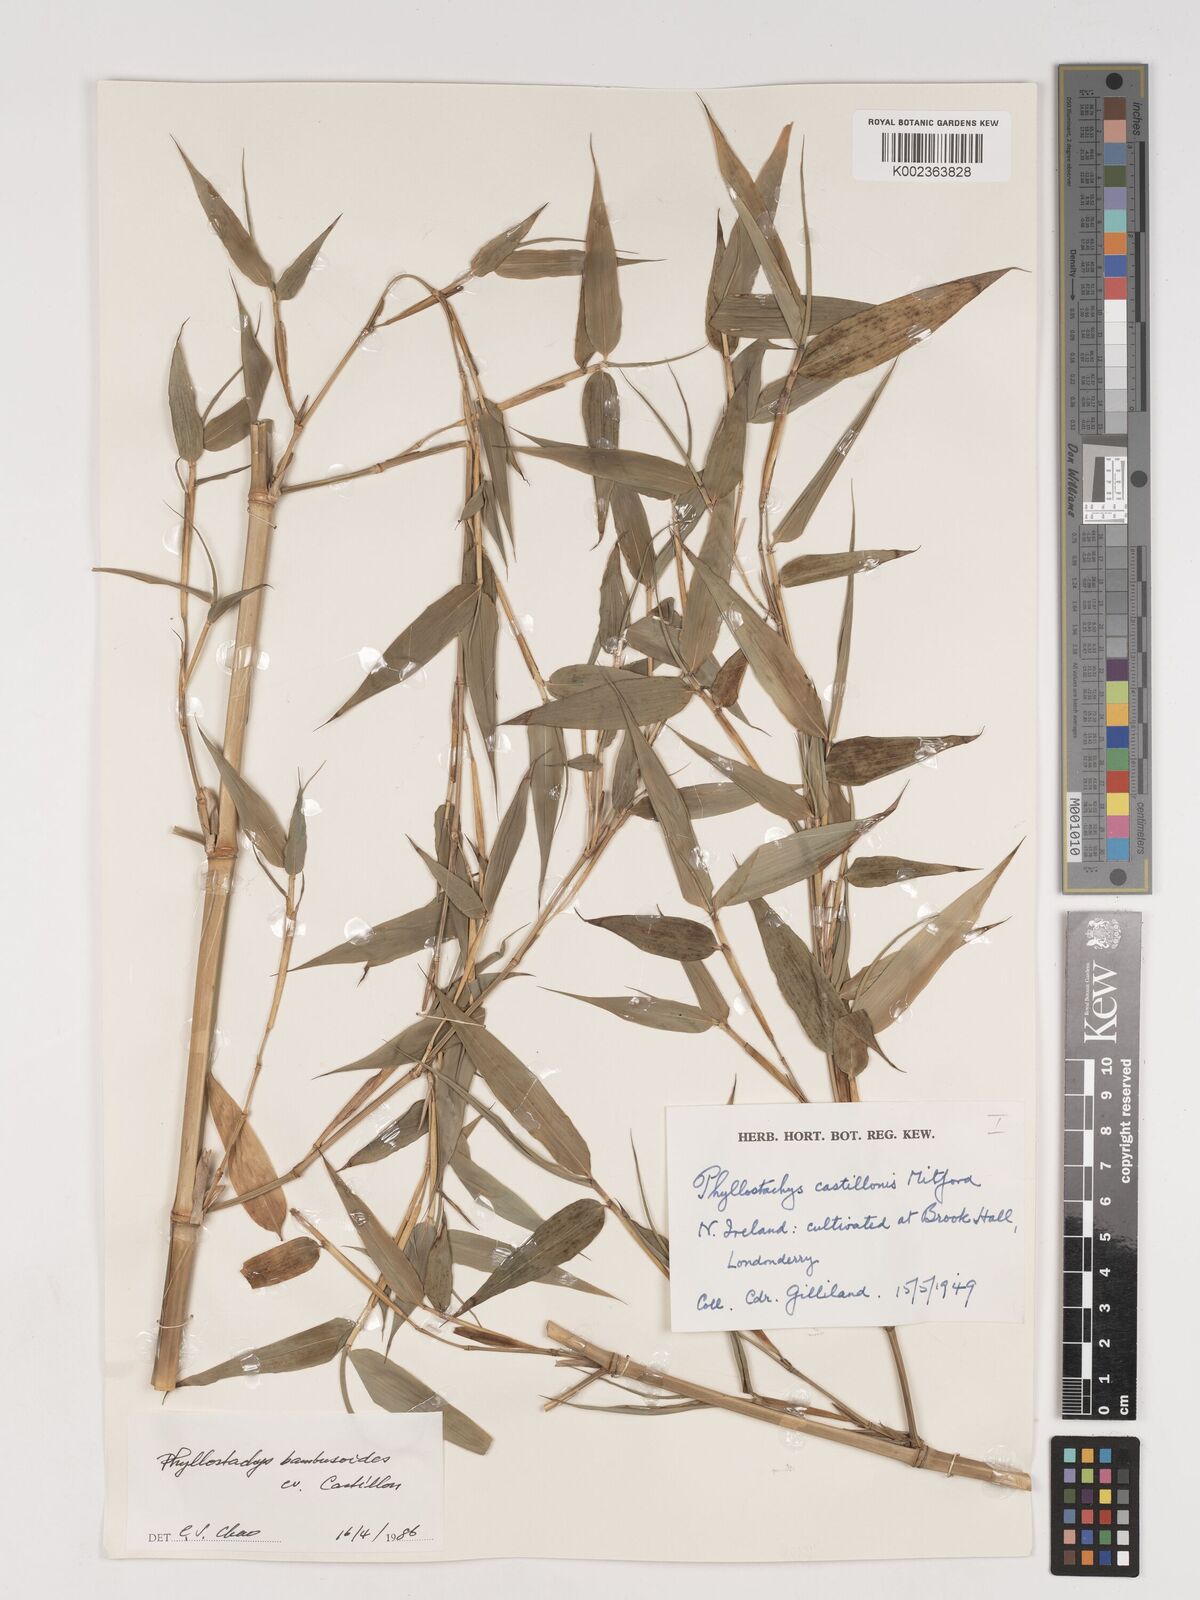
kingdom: Plantae
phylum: Tracheophyta
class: Liliopsida
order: Poales
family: Poaceae
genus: Phyllostachys
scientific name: Phyllostachys reticulata
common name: Bamboo
